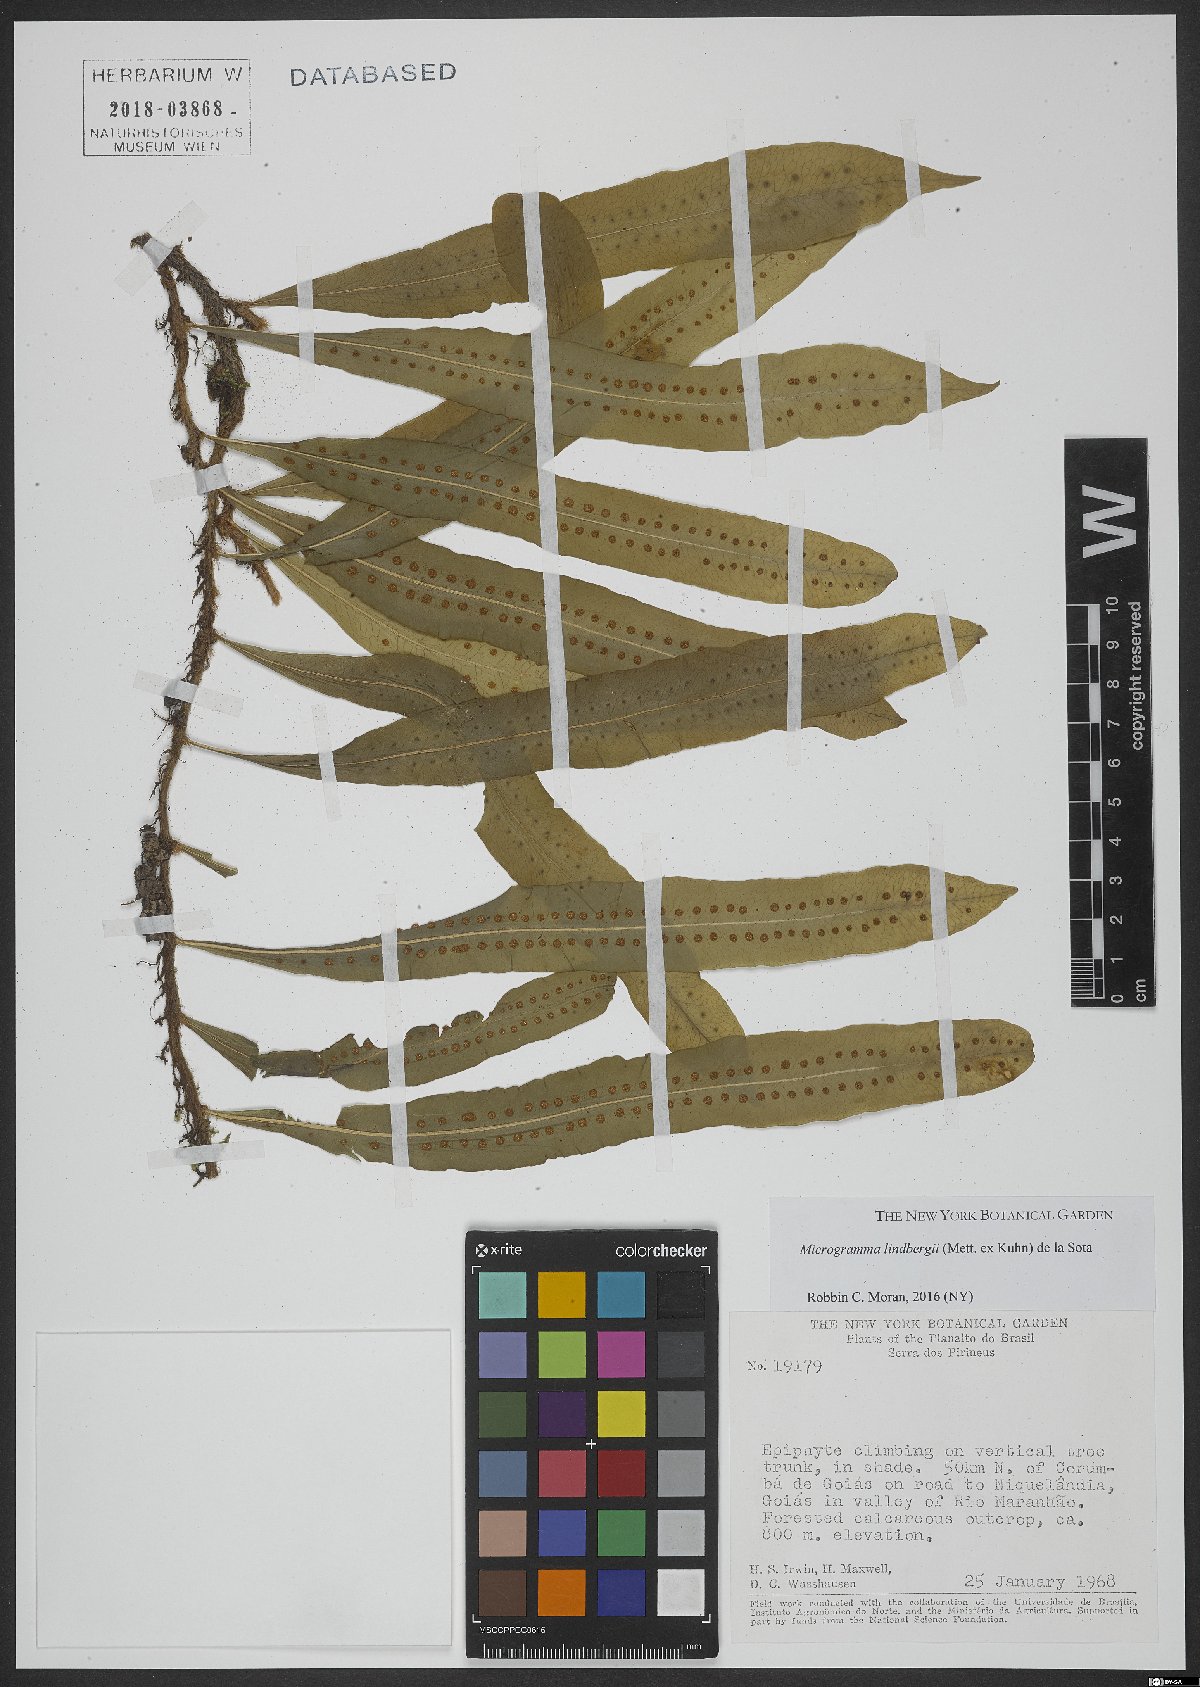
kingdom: Plantae
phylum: Tracheophyta
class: Polypodiopsida
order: Polypodiales
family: Polypodiaceae
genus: Microgramma
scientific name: Microgramma lindbergii
